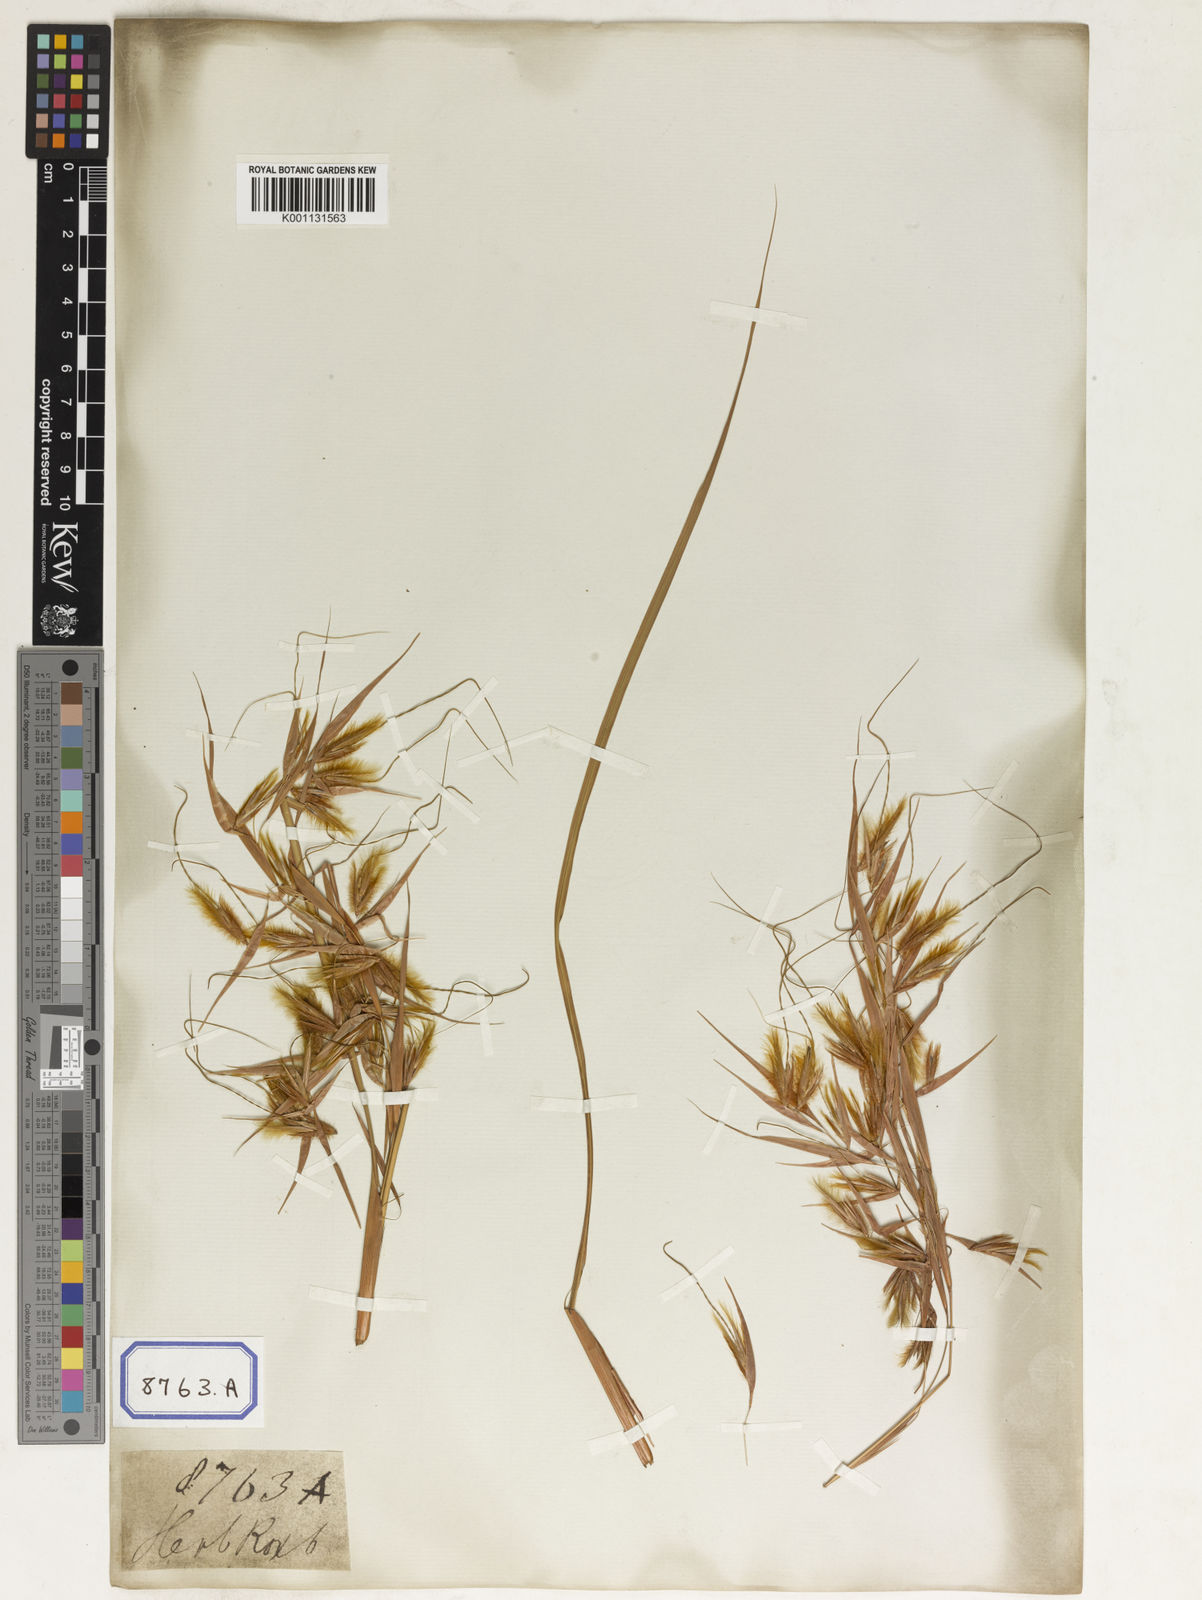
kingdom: Plantae
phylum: Tracheophyta
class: Liliopsida
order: Poales
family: Poaceae
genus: Themeda
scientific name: Themeda
